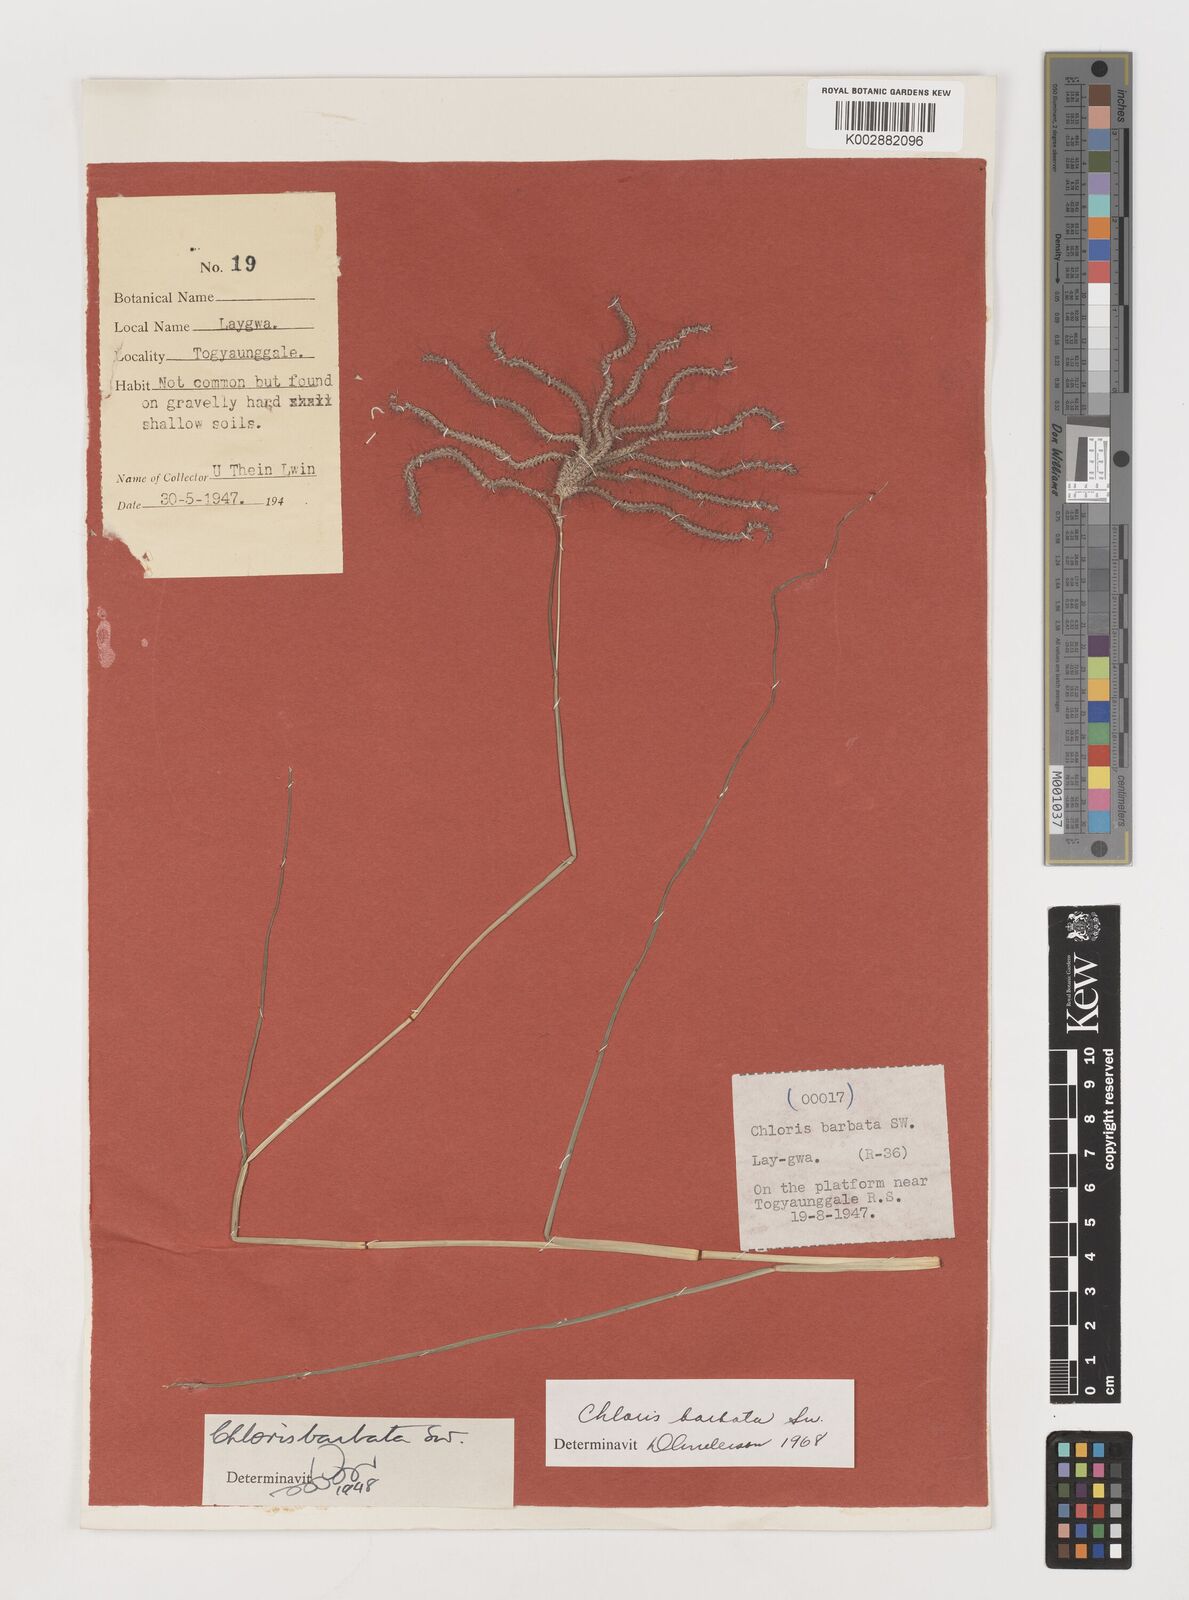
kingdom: Plantae
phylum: Tracheophyta
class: Liliopsida
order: Poales
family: Poaceae
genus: Chloris
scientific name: Chloris barbata
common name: Swollen fingergrass
